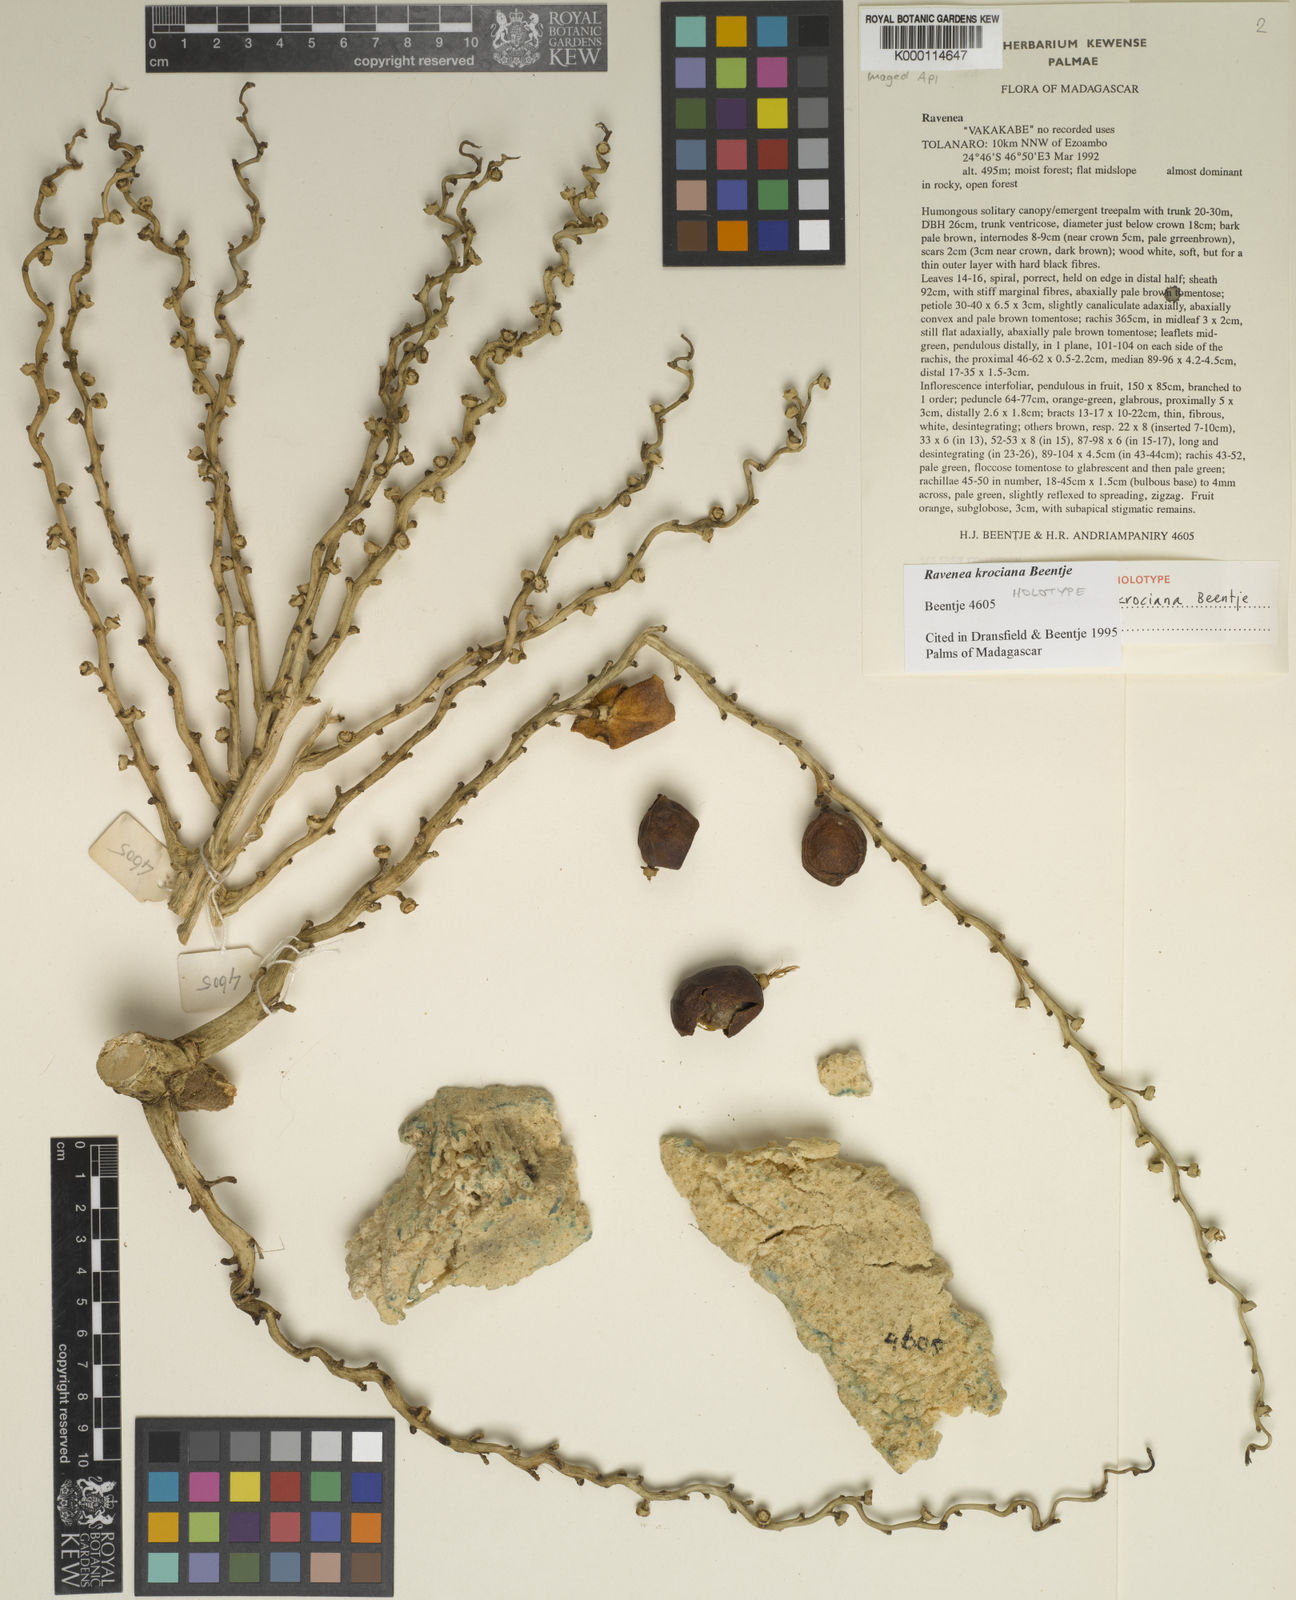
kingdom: Plantae
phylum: Tracheophyta
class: Liliopsida
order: Arecales
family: Arecaceae
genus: Ravenea
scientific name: Ravenea krociana
